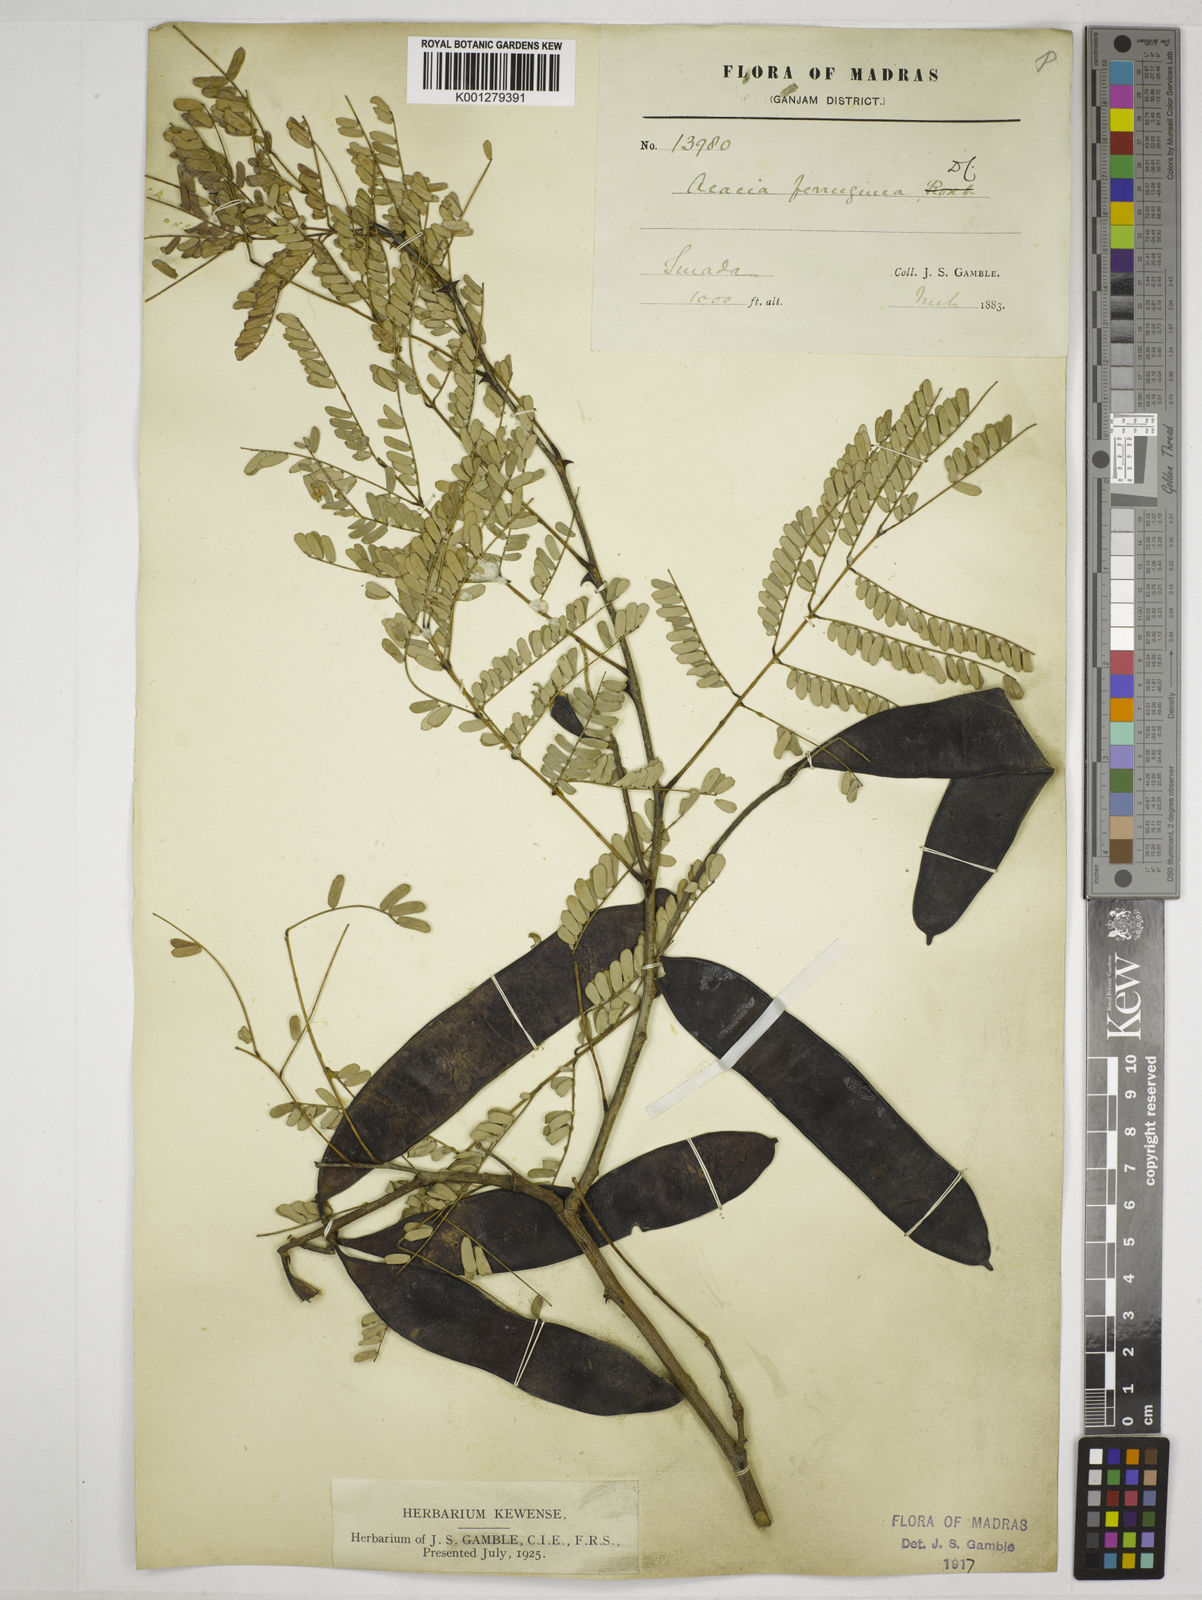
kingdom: Plantae
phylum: Tracheophyta
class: Magnoliopsida
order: Fabales
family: Fabaceae
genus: Senegalia
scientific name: Senegalia ferruginea
